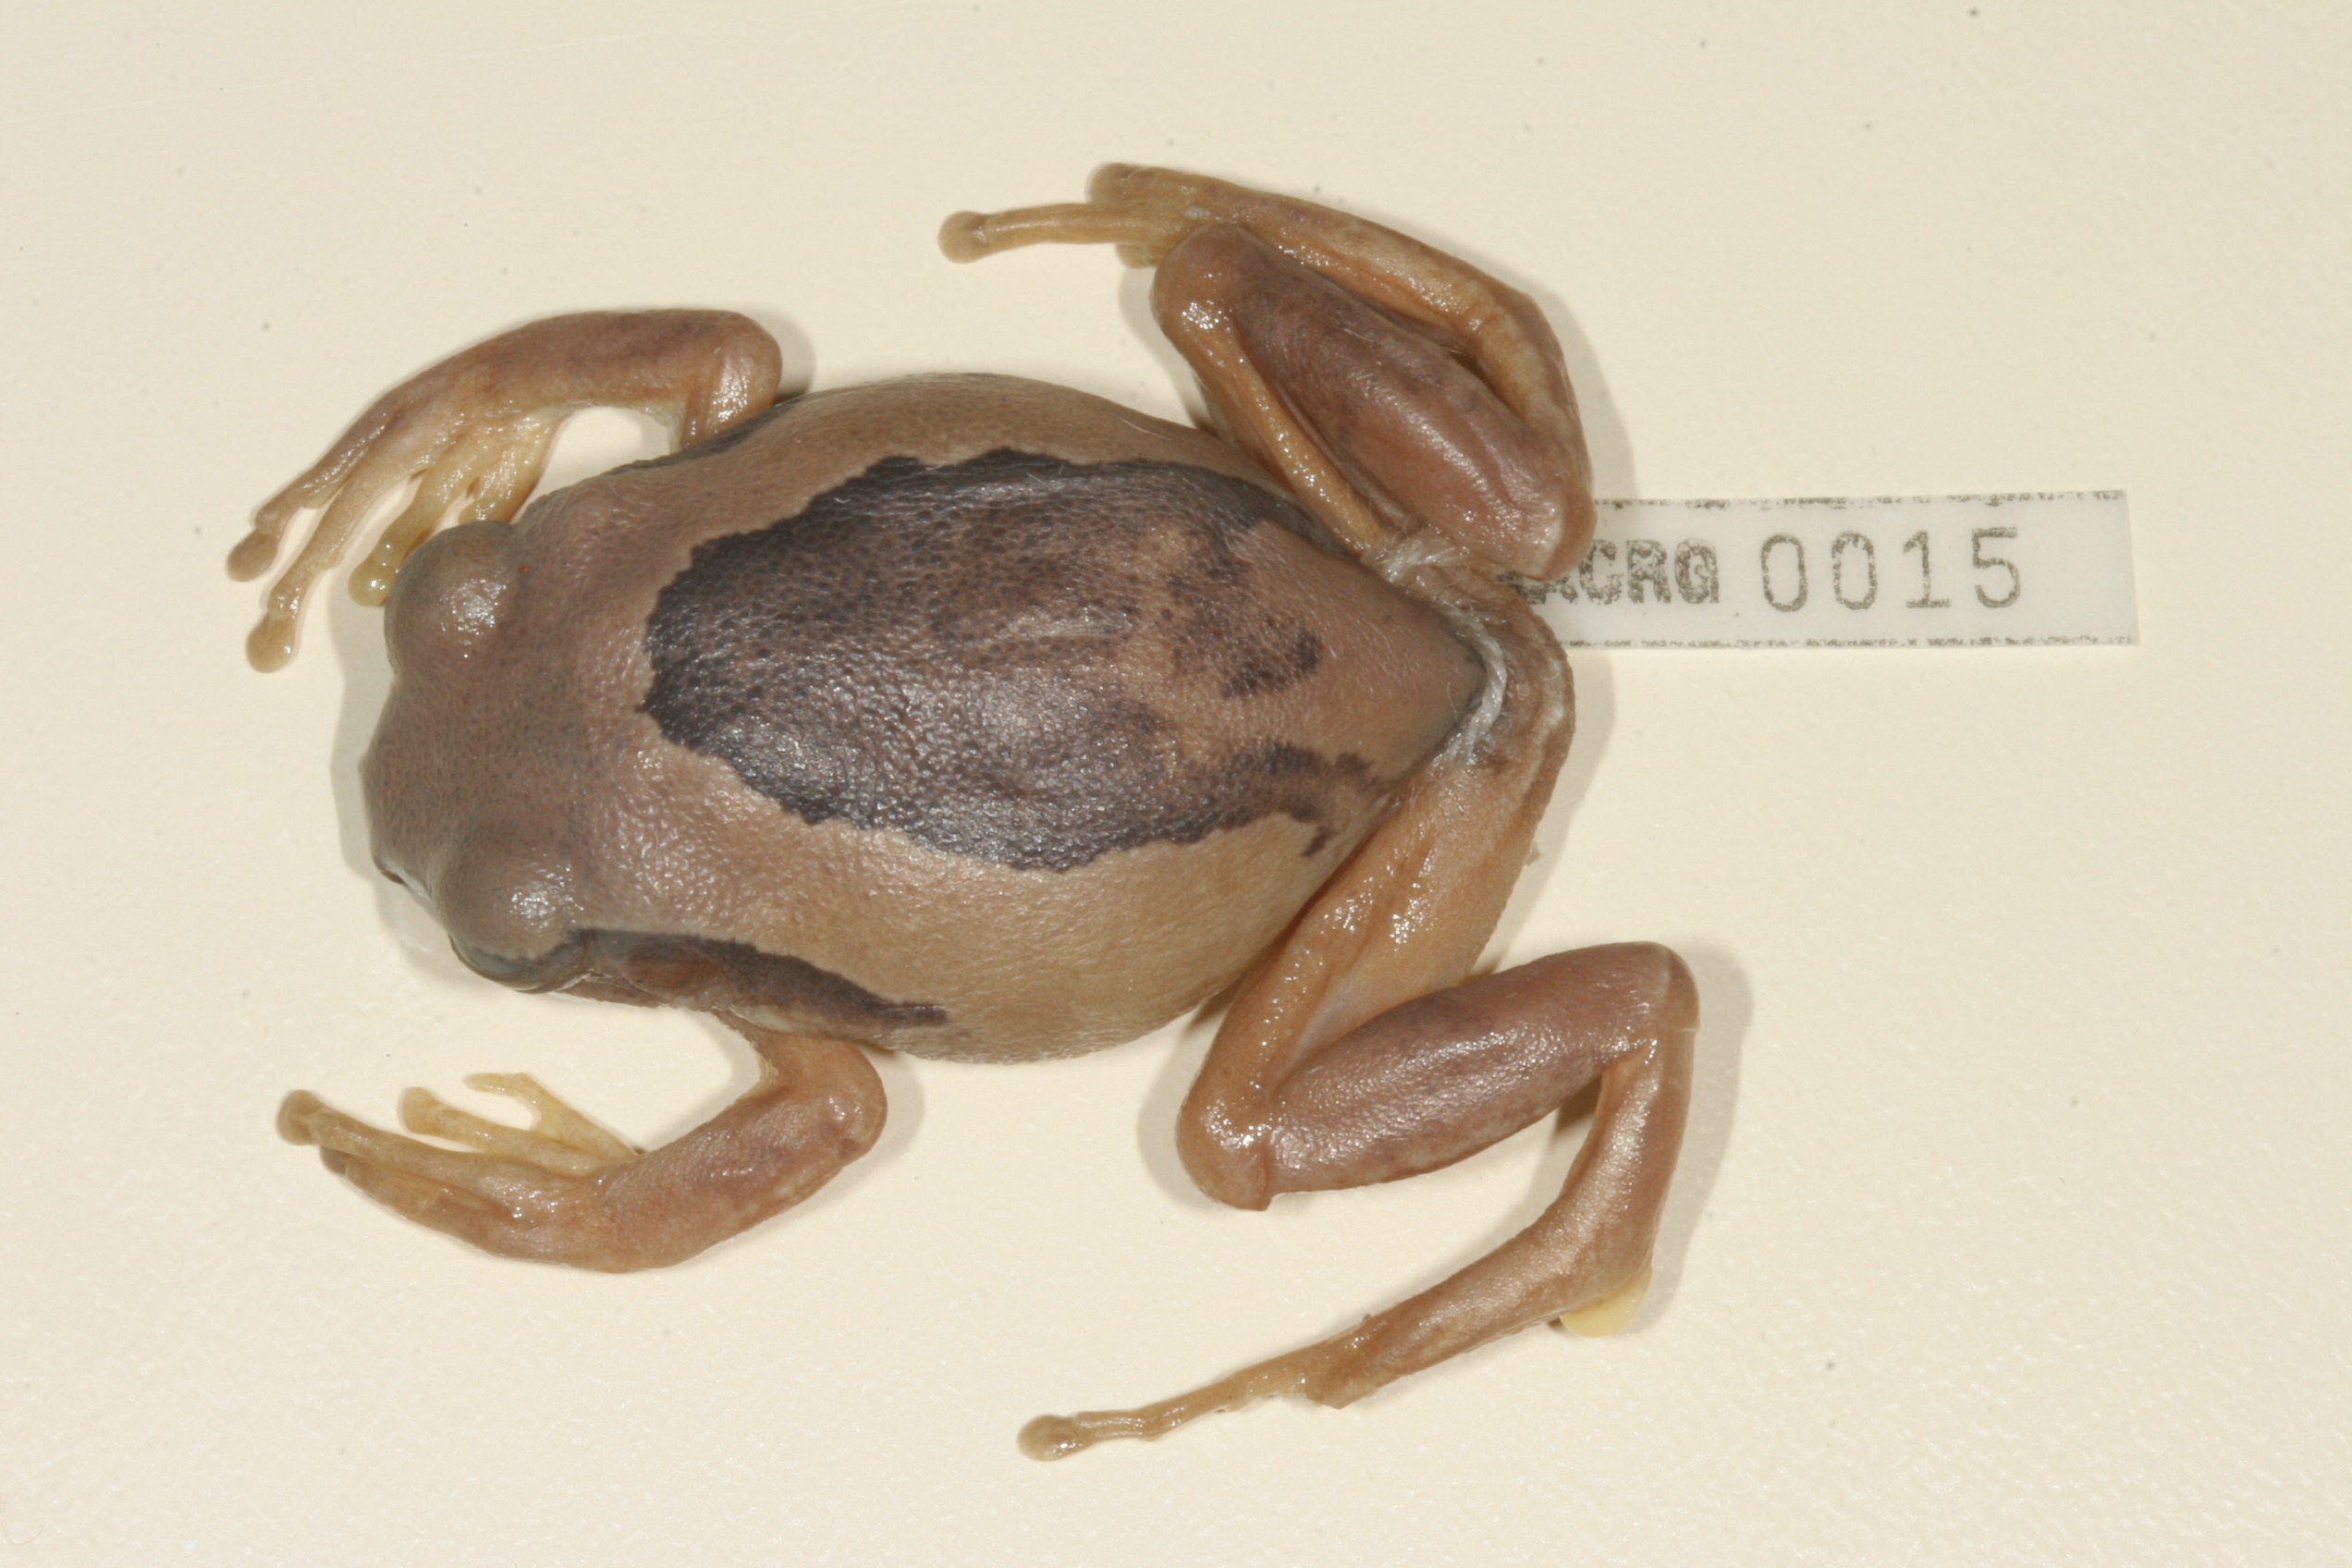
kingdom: Animalia
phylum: Chordata
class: Amphibia
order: Anura
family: Arthroleptidae
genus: Leptopelis
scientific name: Leptopelis mossambicus
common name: Mozambique tree frog
